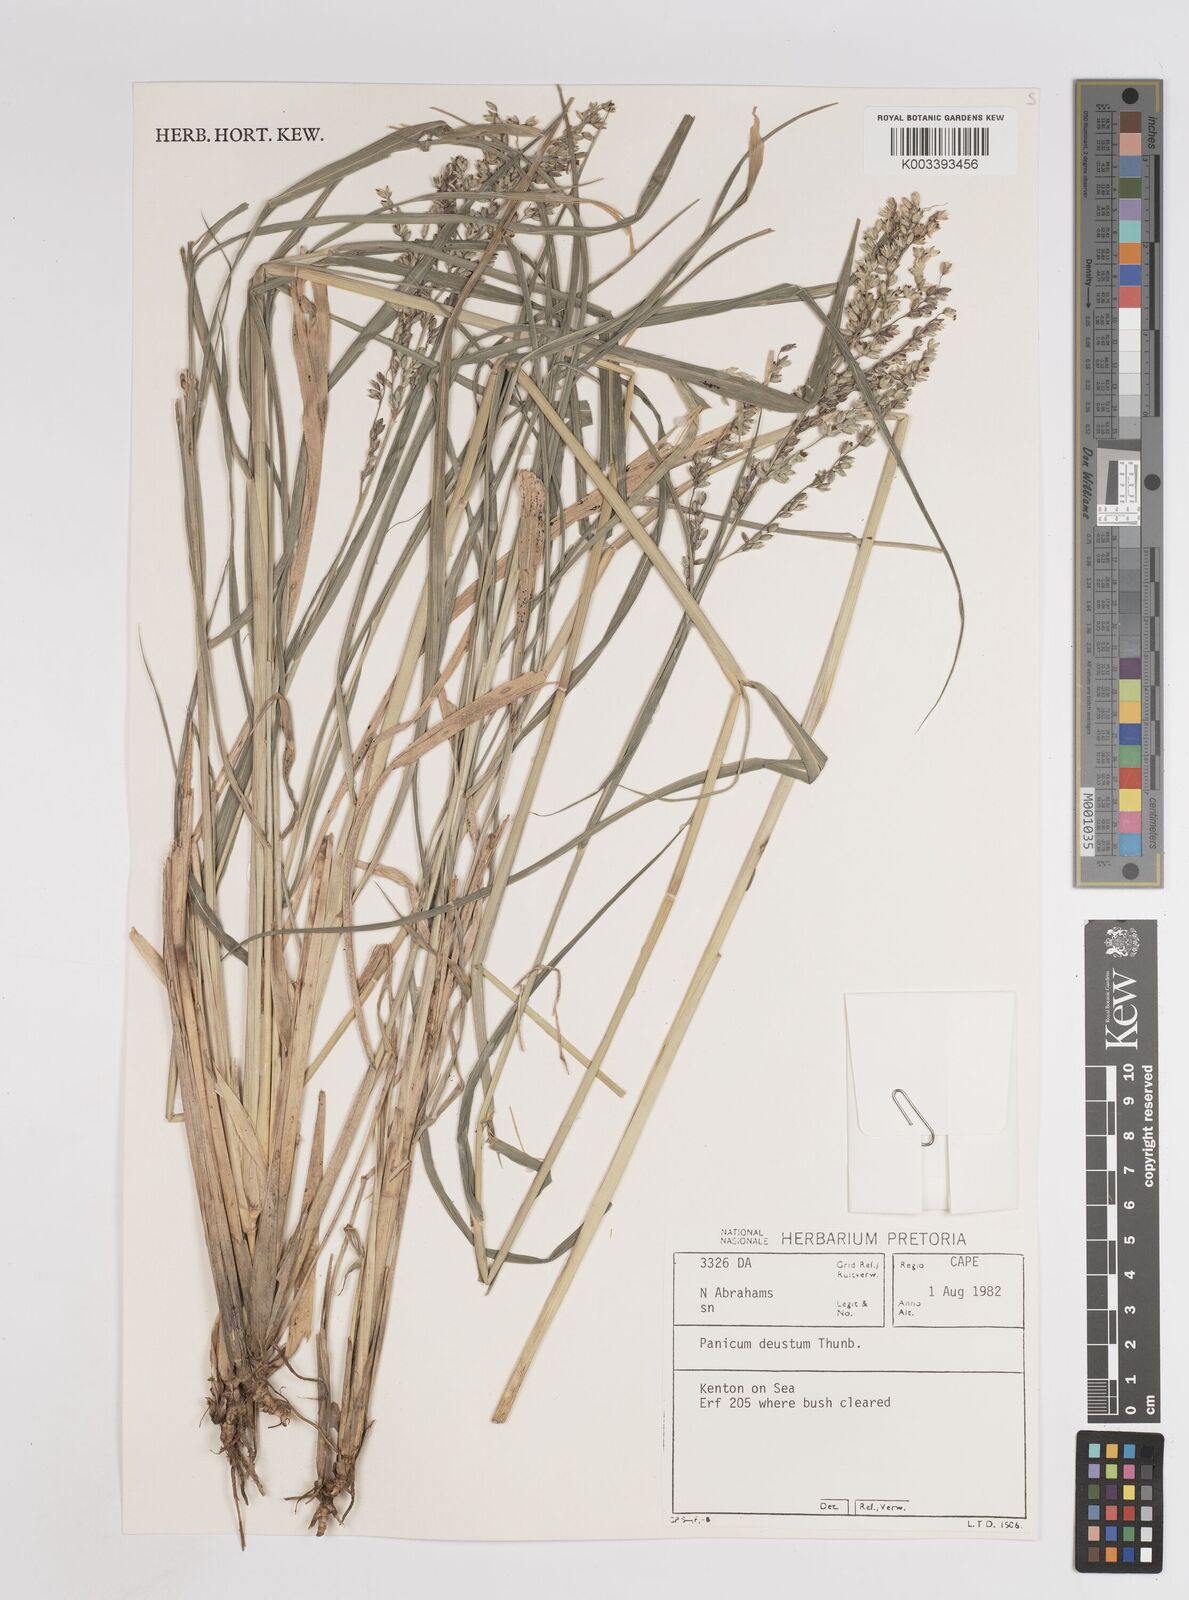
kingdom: Plantae
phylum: Tracheophyta
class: Liliopsida
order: Poales
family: Poaceae
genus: Panicum
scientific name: Panicum deustum
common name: Reed panicum
